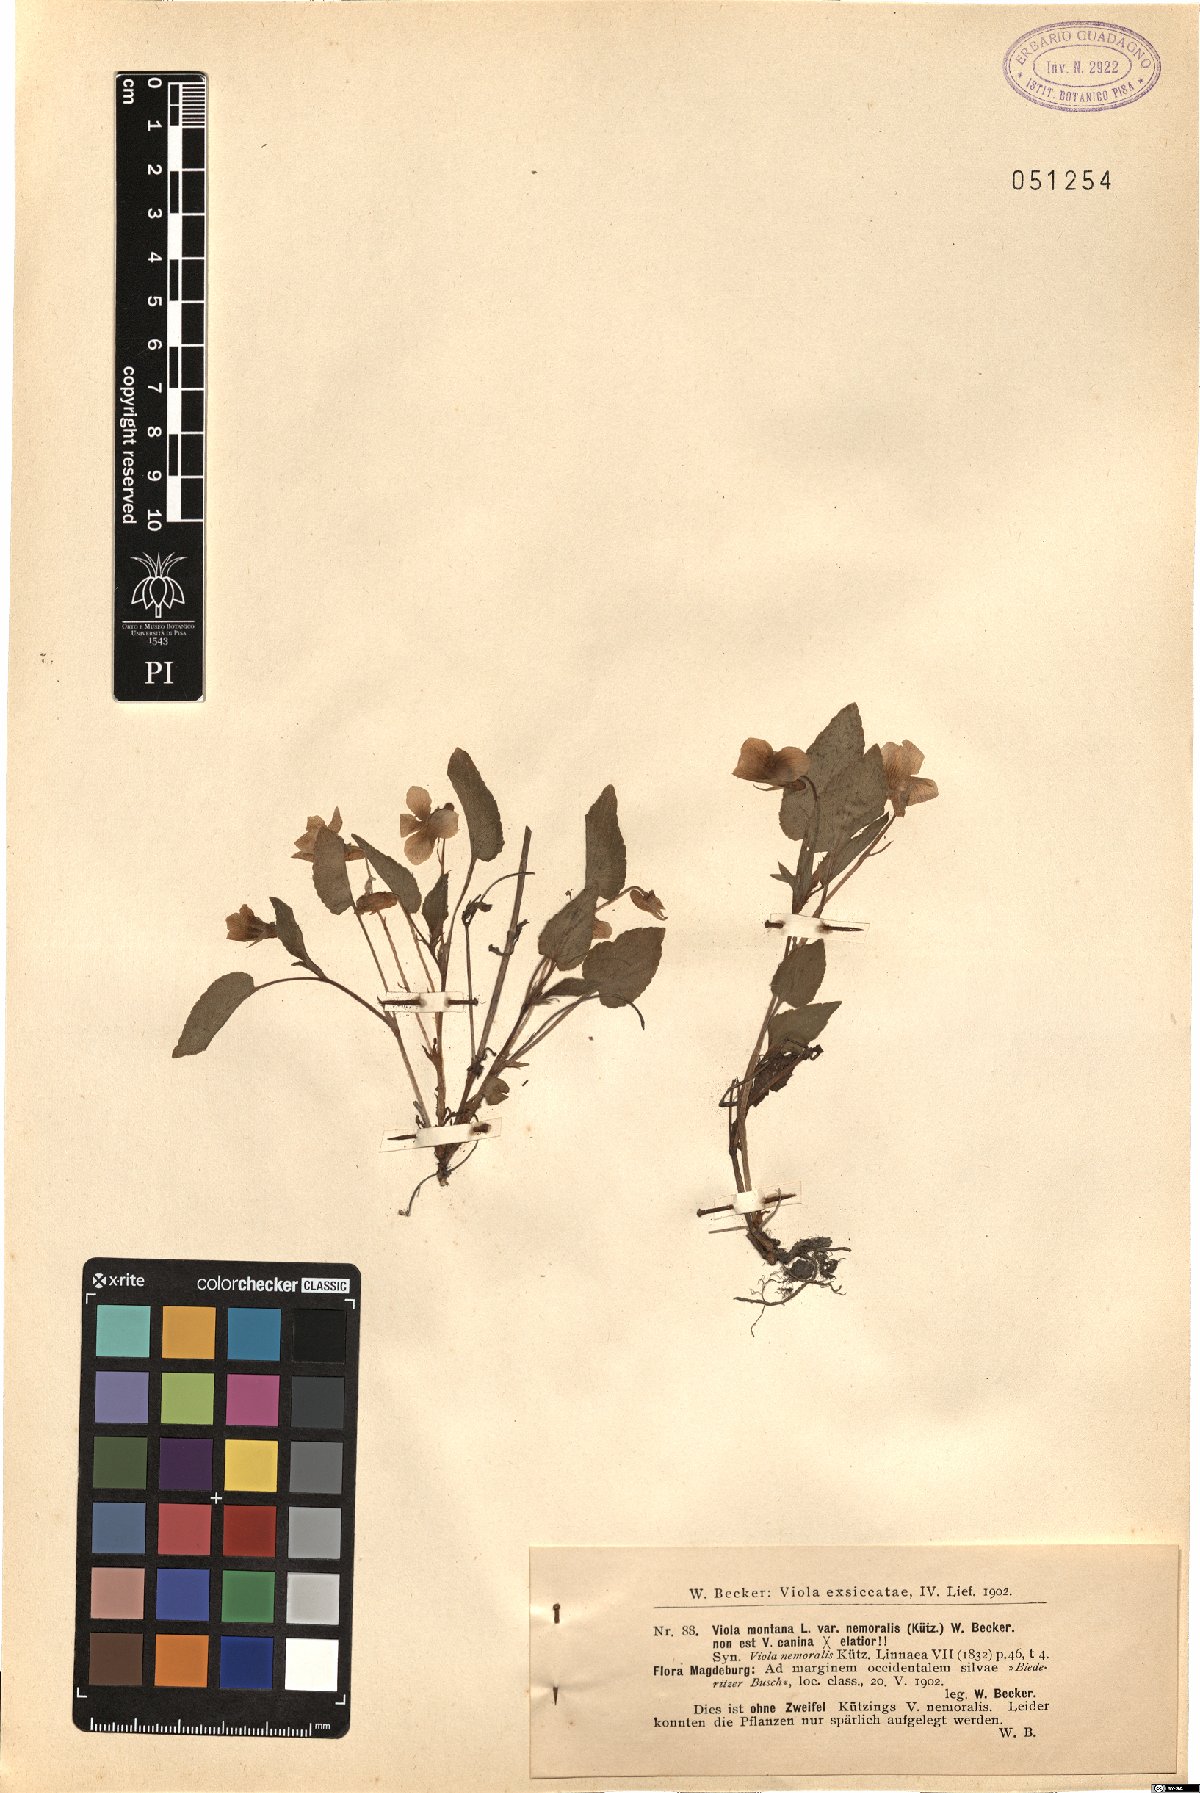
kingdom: Plantae
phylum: Tracheophyta
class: Magnoliopsida
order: Malpighiales
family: Violaceae
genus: Viola
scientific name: Viola
